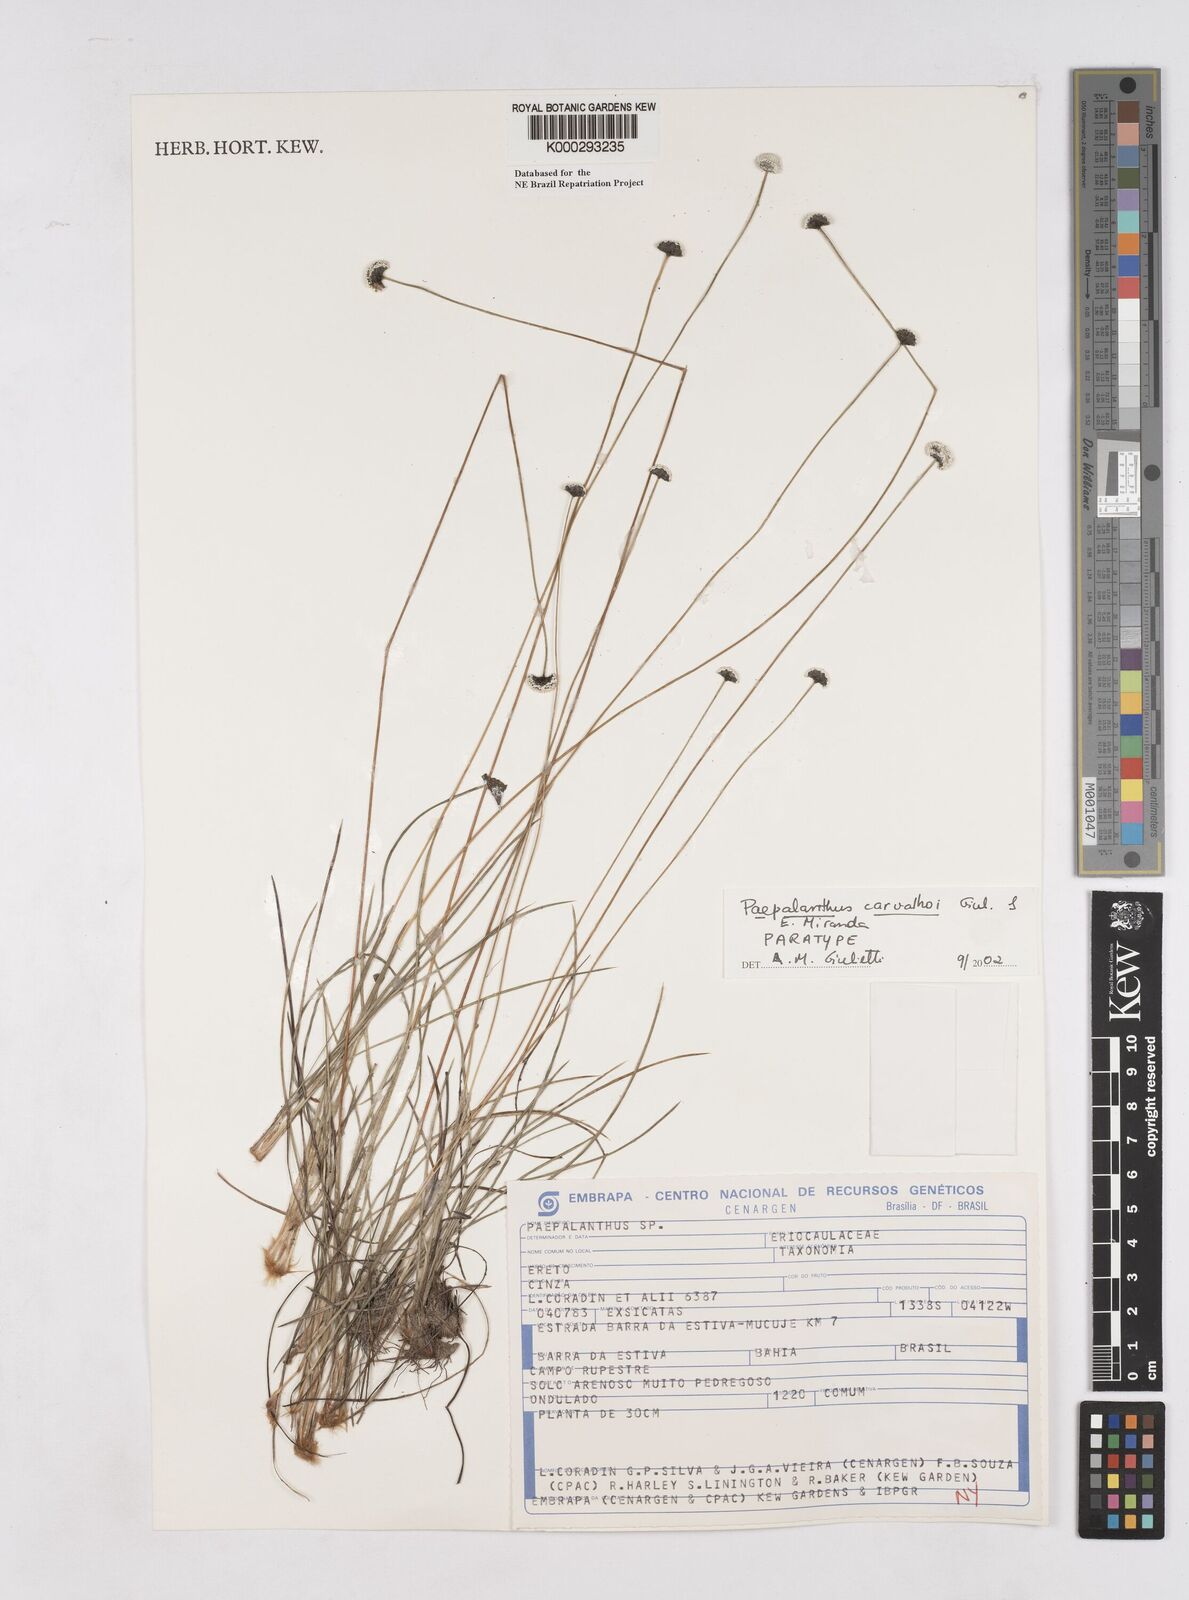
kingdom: Plantae
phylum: Tracheophyta
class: Liliopsida
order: Poales
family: Eriocaulaceae
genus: Paepalanthus
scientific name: Paepalanthus carvalhoi
